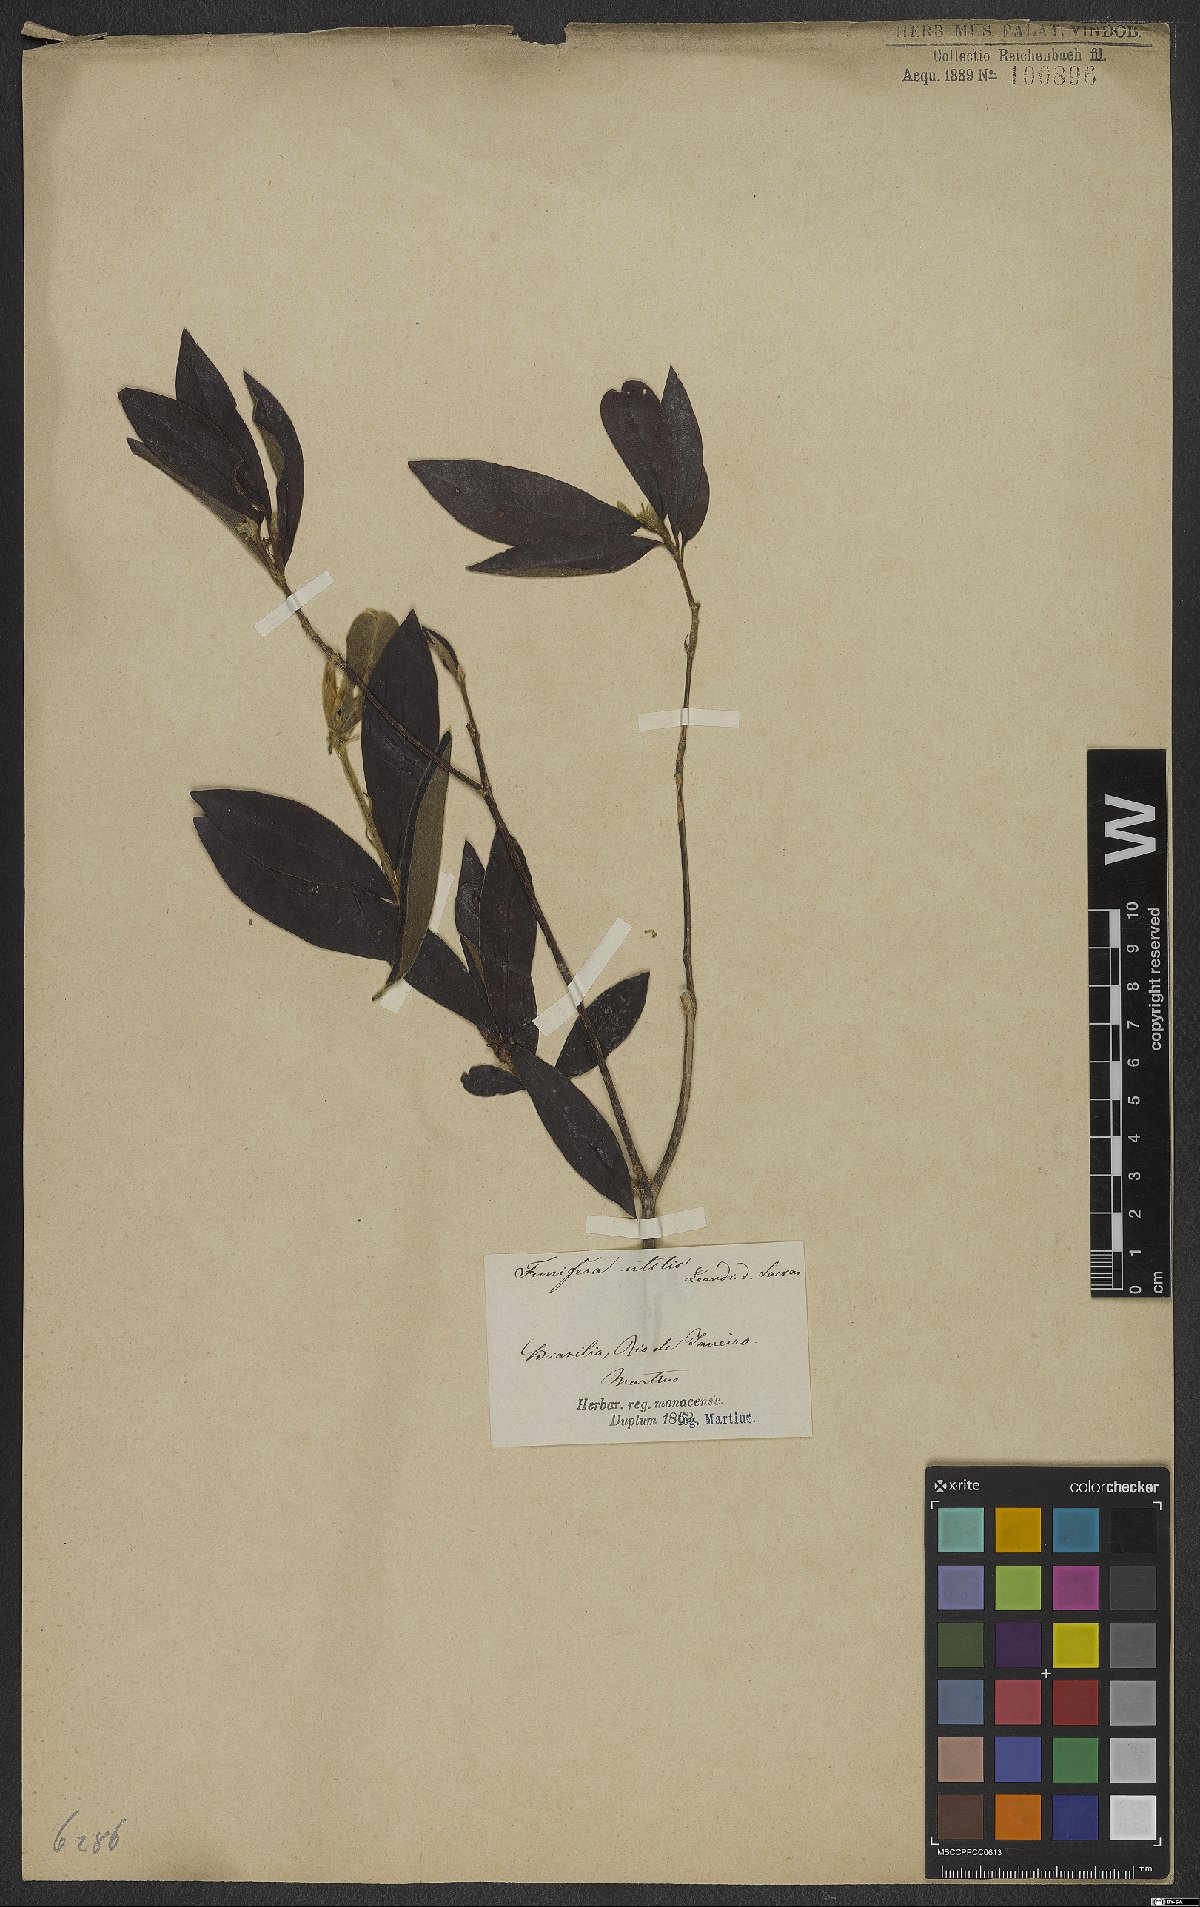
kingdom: Plantae
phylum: Tracheophyta
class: Magnoliopsida
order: Malvales
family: Thymelaeaceae
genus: Funifera
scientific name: Funifera brasiliensis
